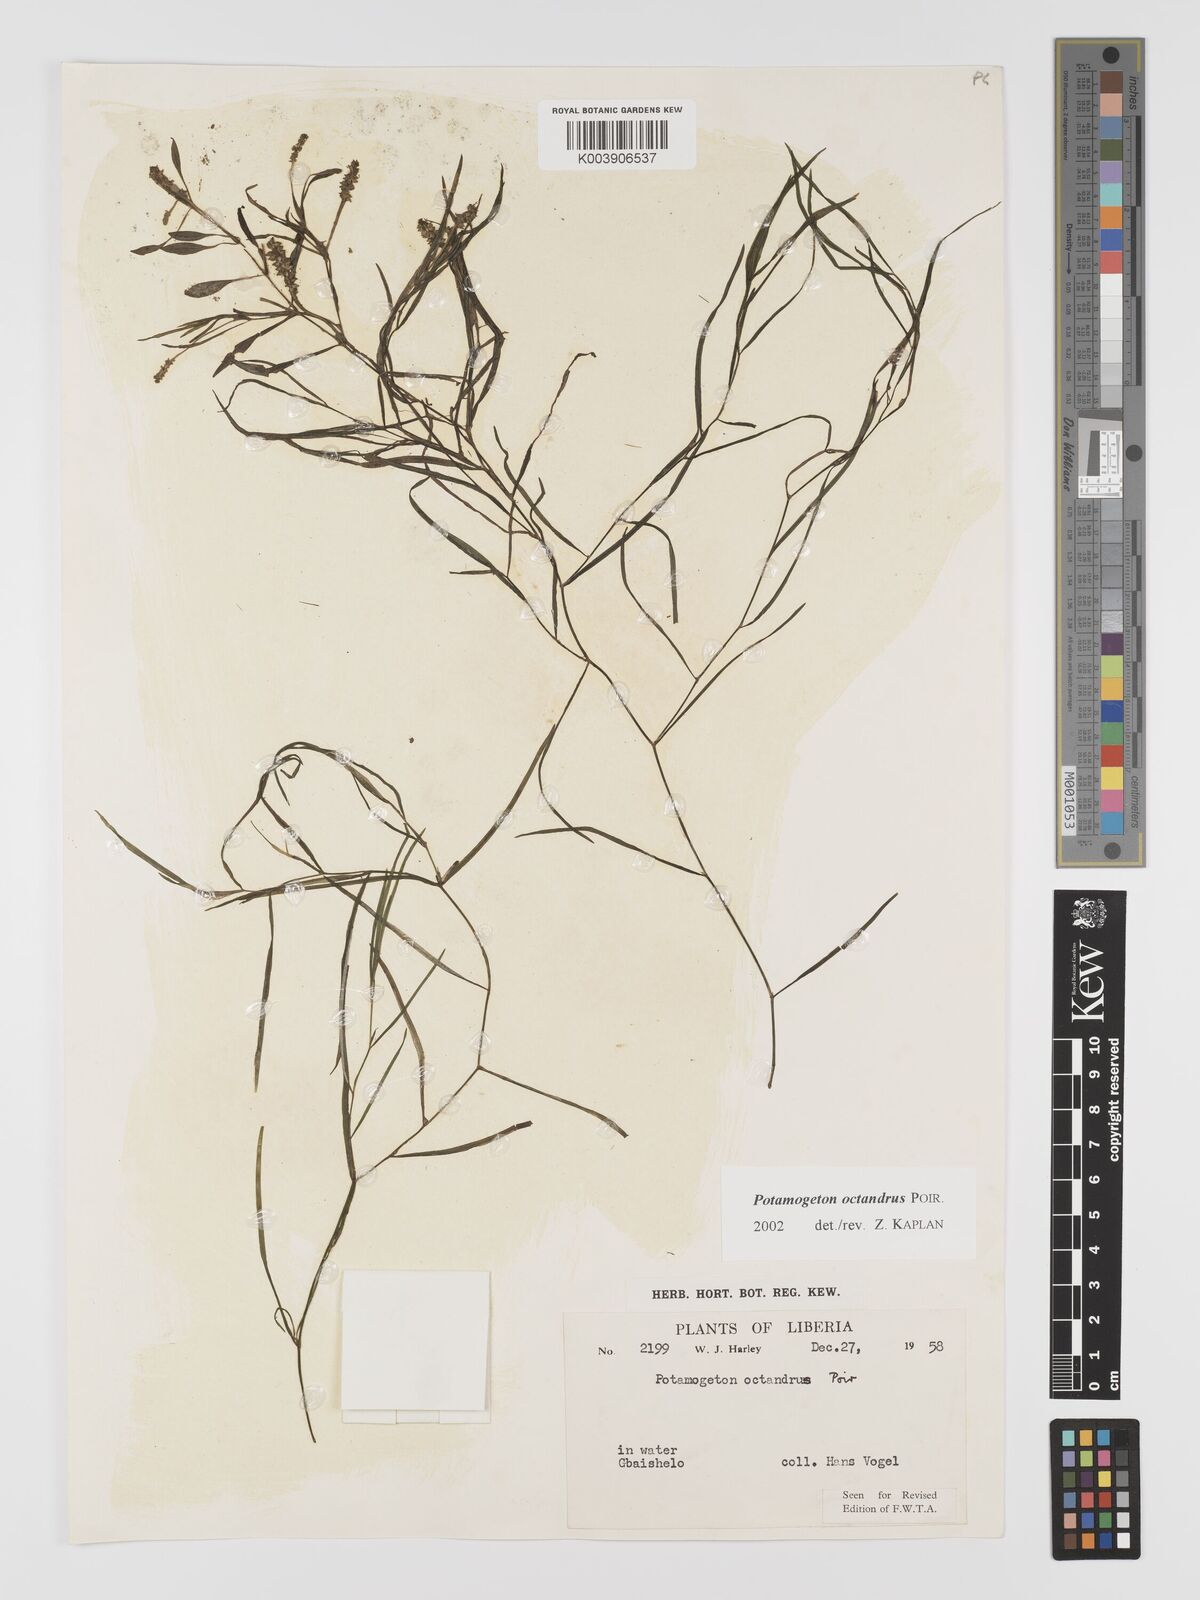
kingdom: Plantae
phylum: Tracheophyta
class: Liliopsida
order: Alismatales
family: Potamogetonaceae
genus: Potamogeton
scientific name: Potamogeton octandrus
